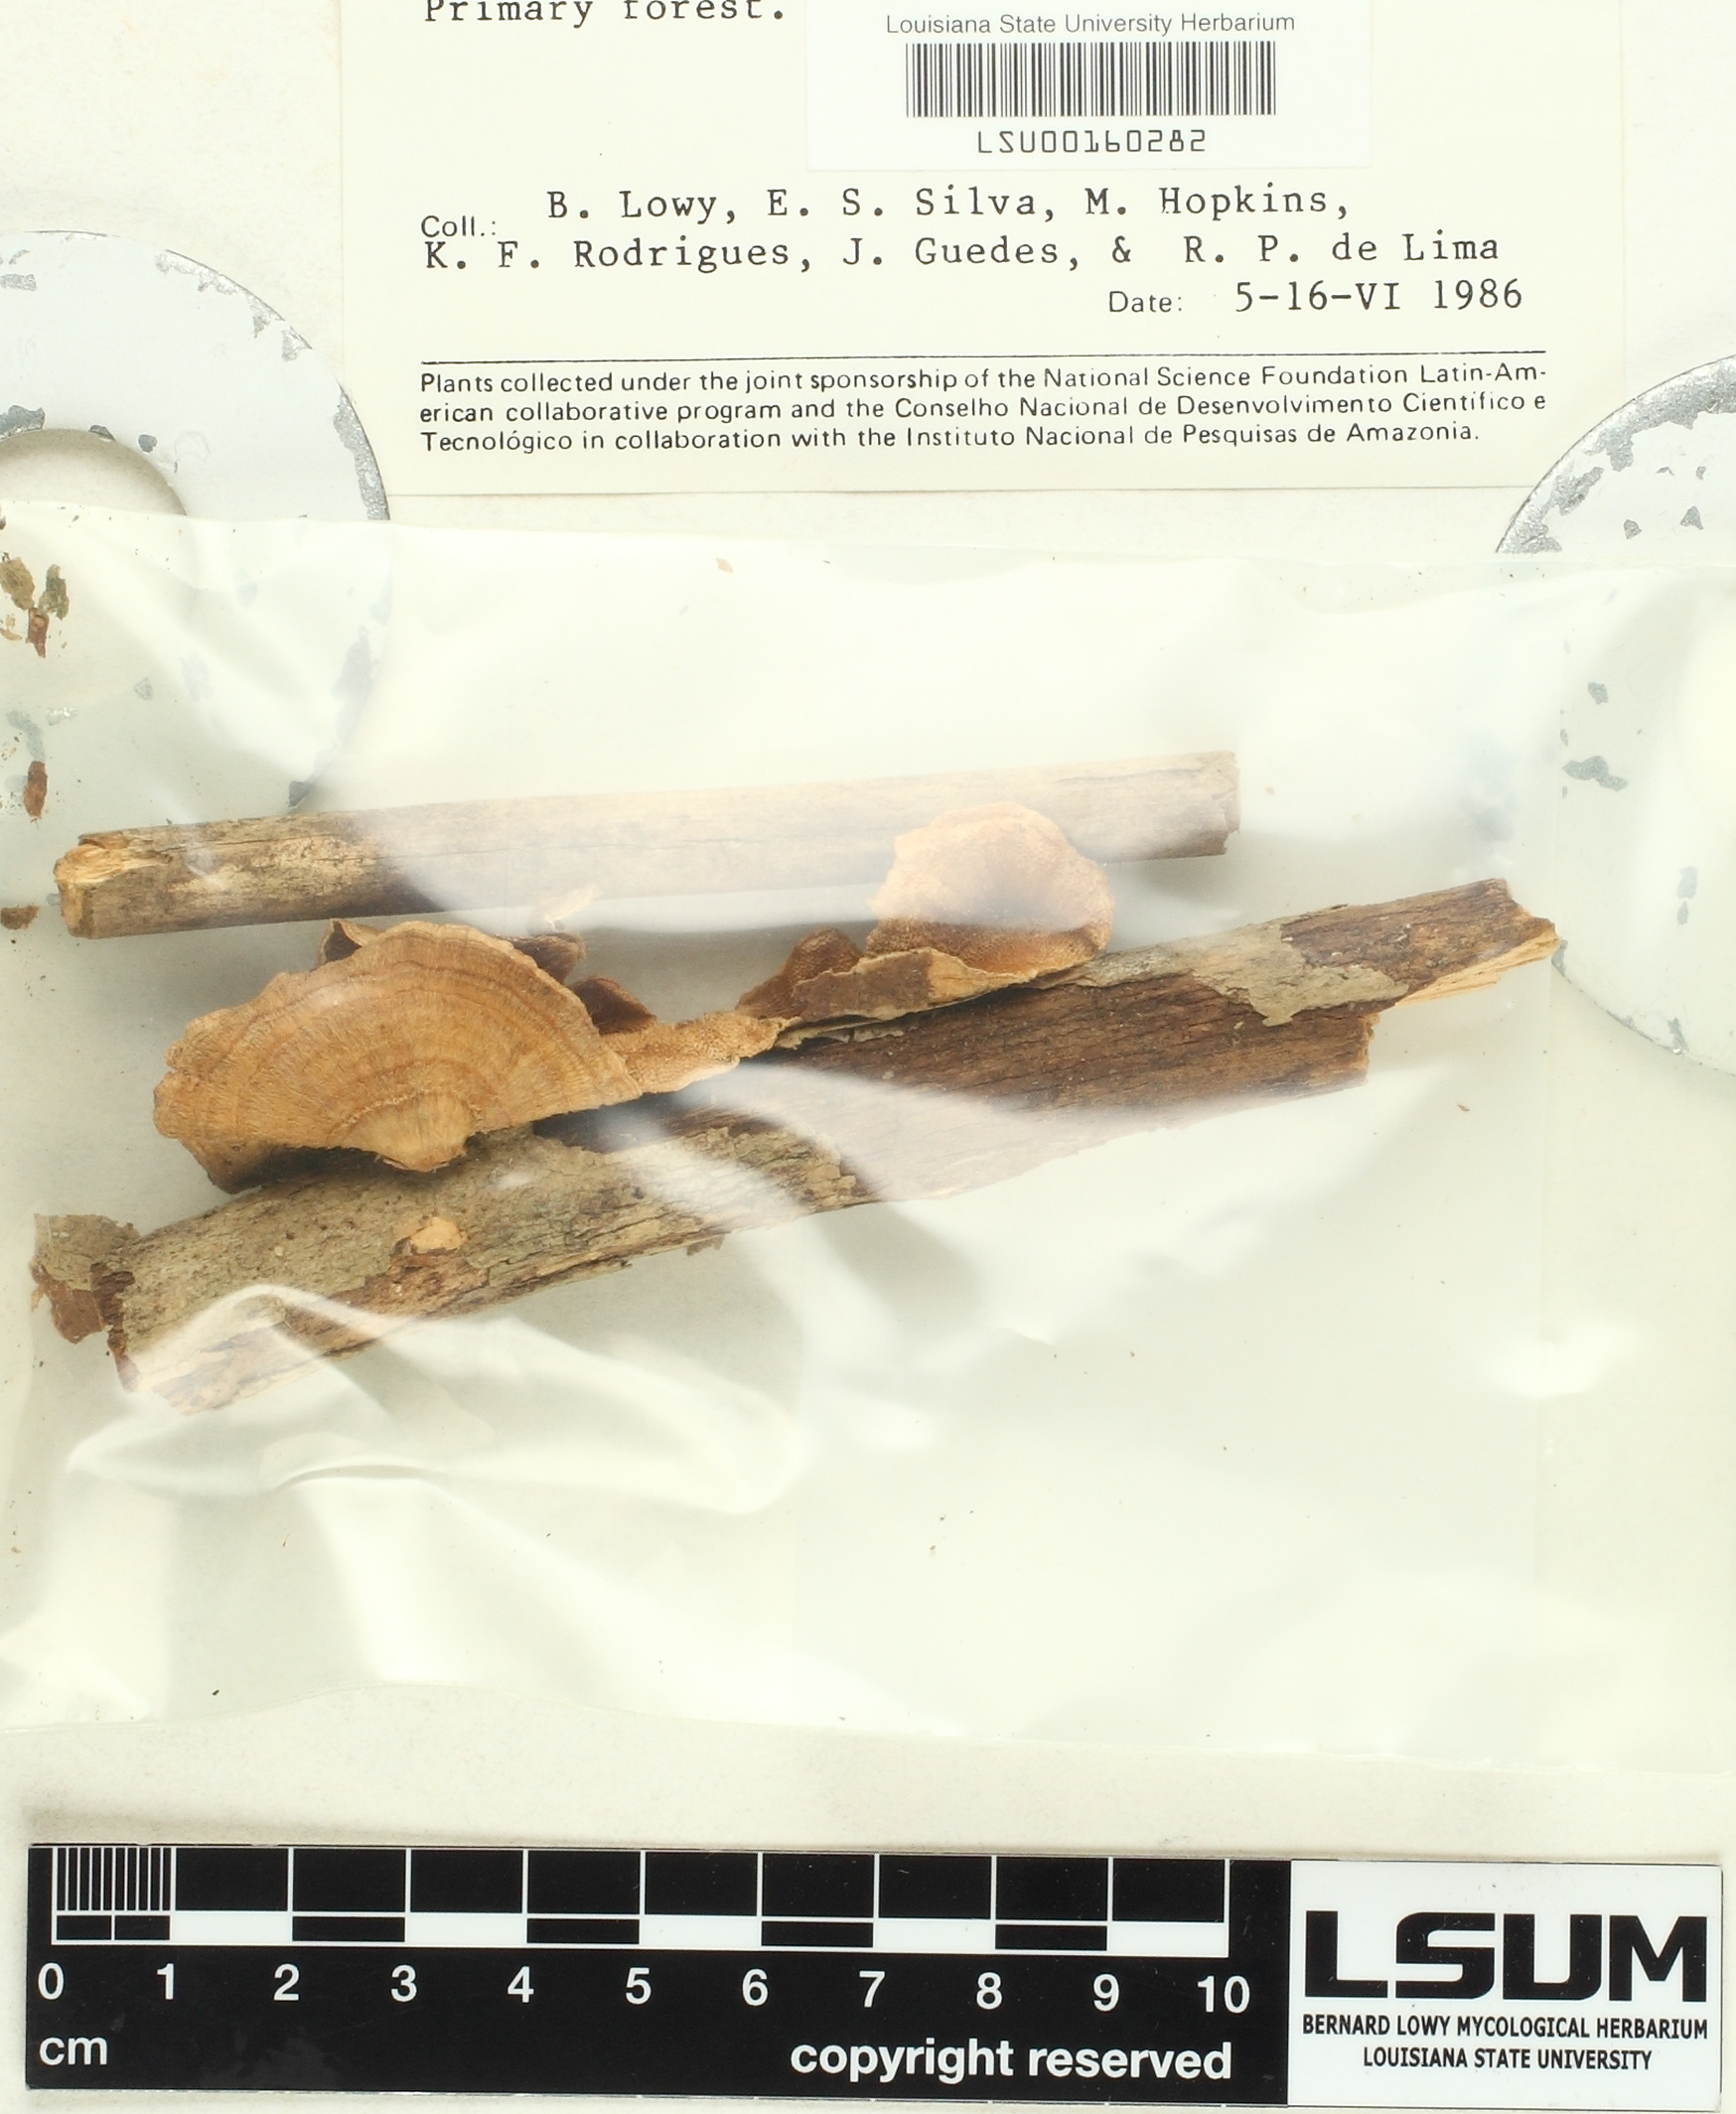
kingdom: Fungi
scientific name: Fungi
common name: Fungi
